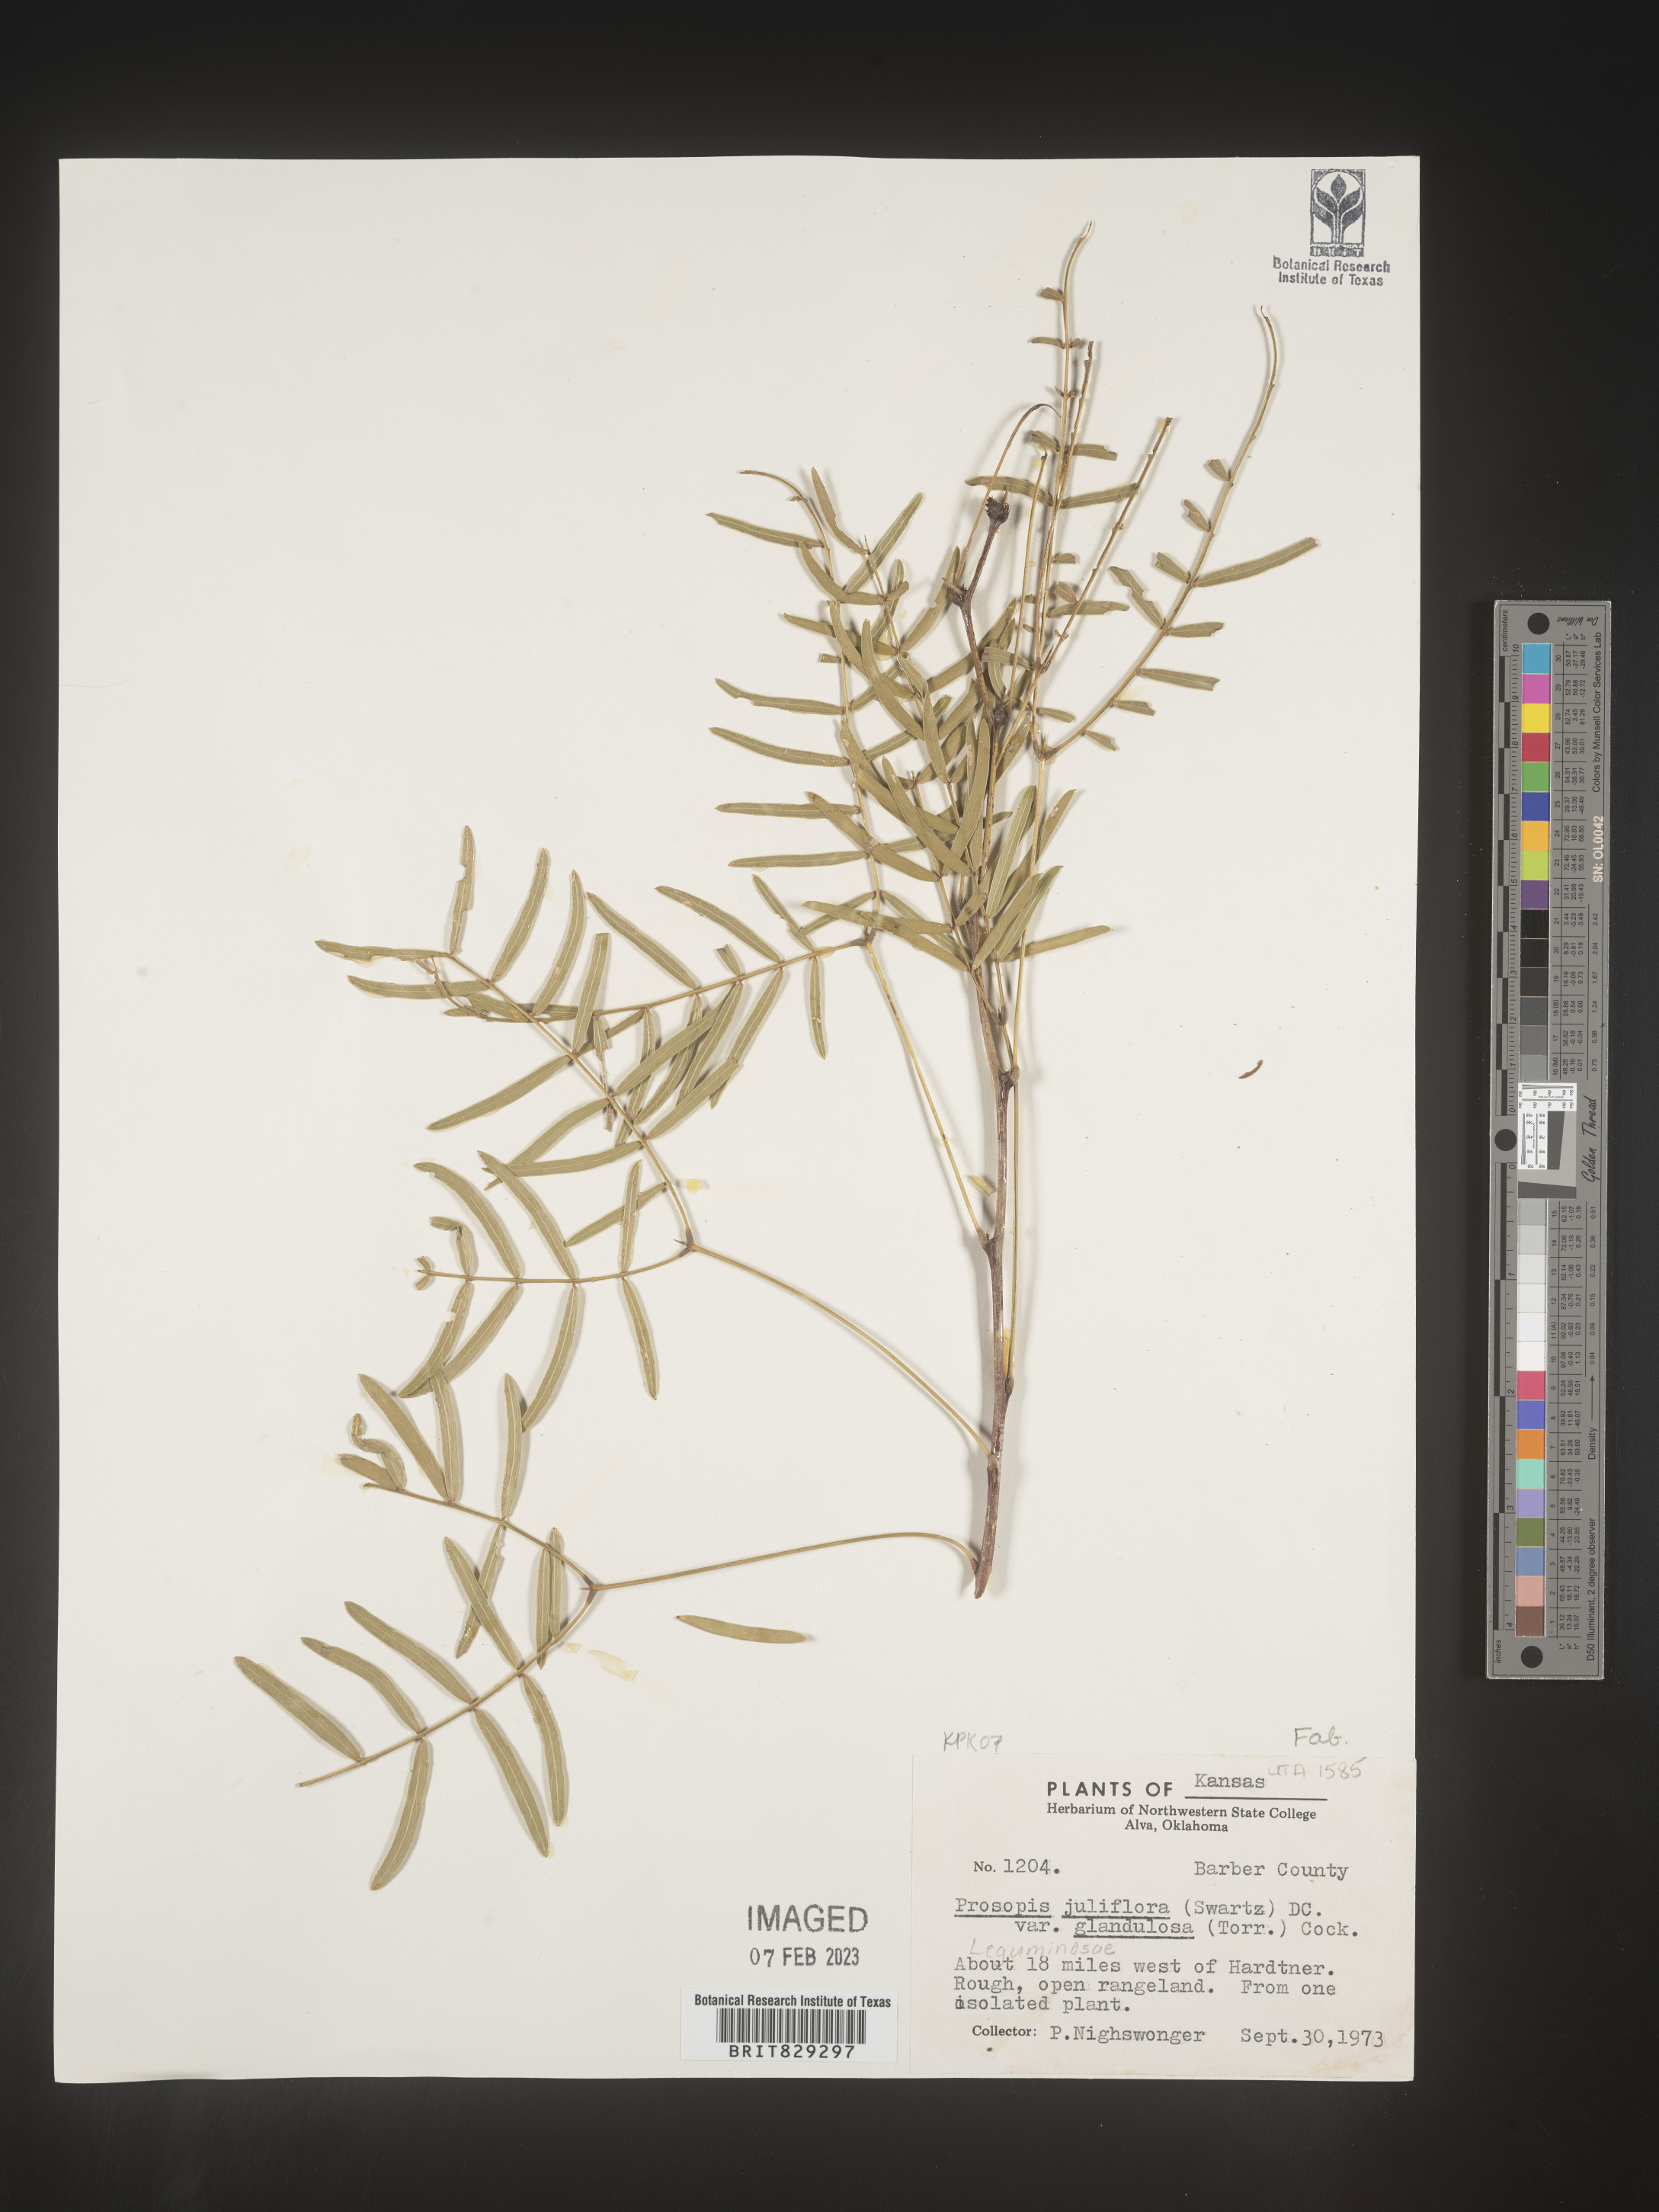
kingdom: Plantae
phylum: Tracheophyta
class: Magnoliopsida
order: Fabales
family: Fabaceae
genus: Prosopis
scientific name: Prosopis juliflora
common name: Mesquite
